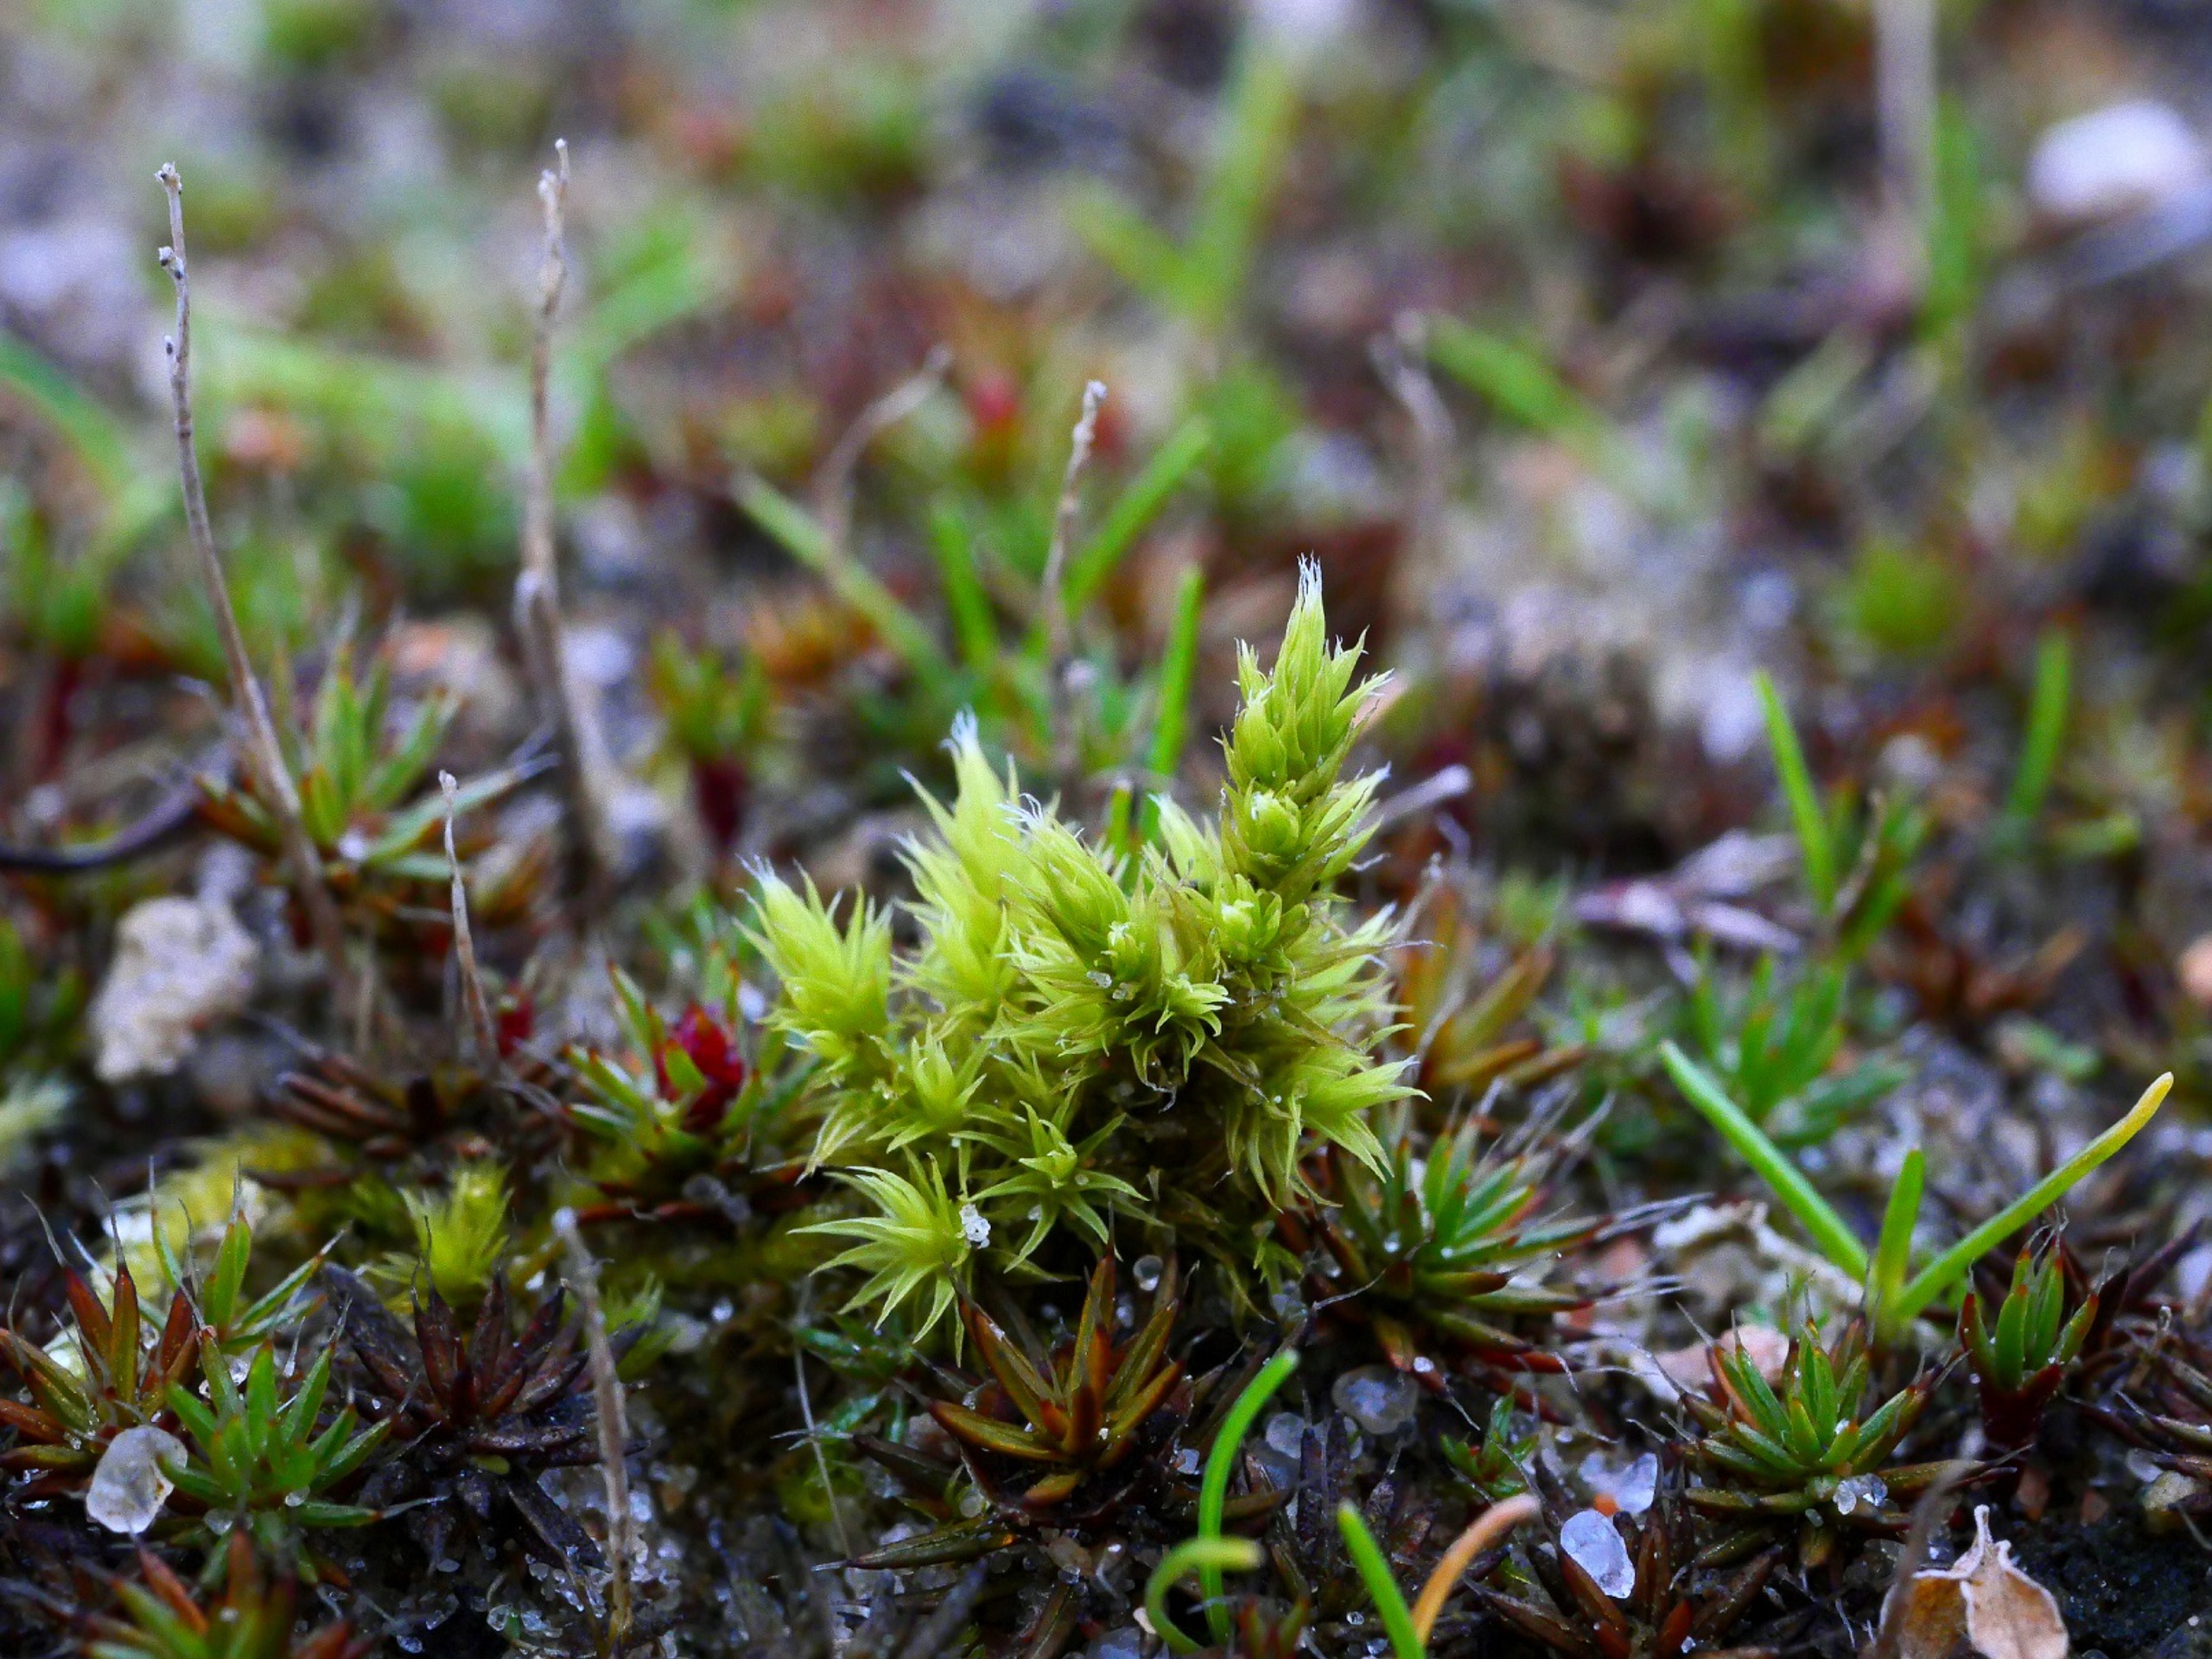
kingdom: Plantae
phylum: Bryophyta
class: Bryopsida
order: Grimmiales
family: Grimmiaceae
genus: Niphotrichum
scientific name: Niphotrichum ericoides
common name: Tætgrenet børstemos
